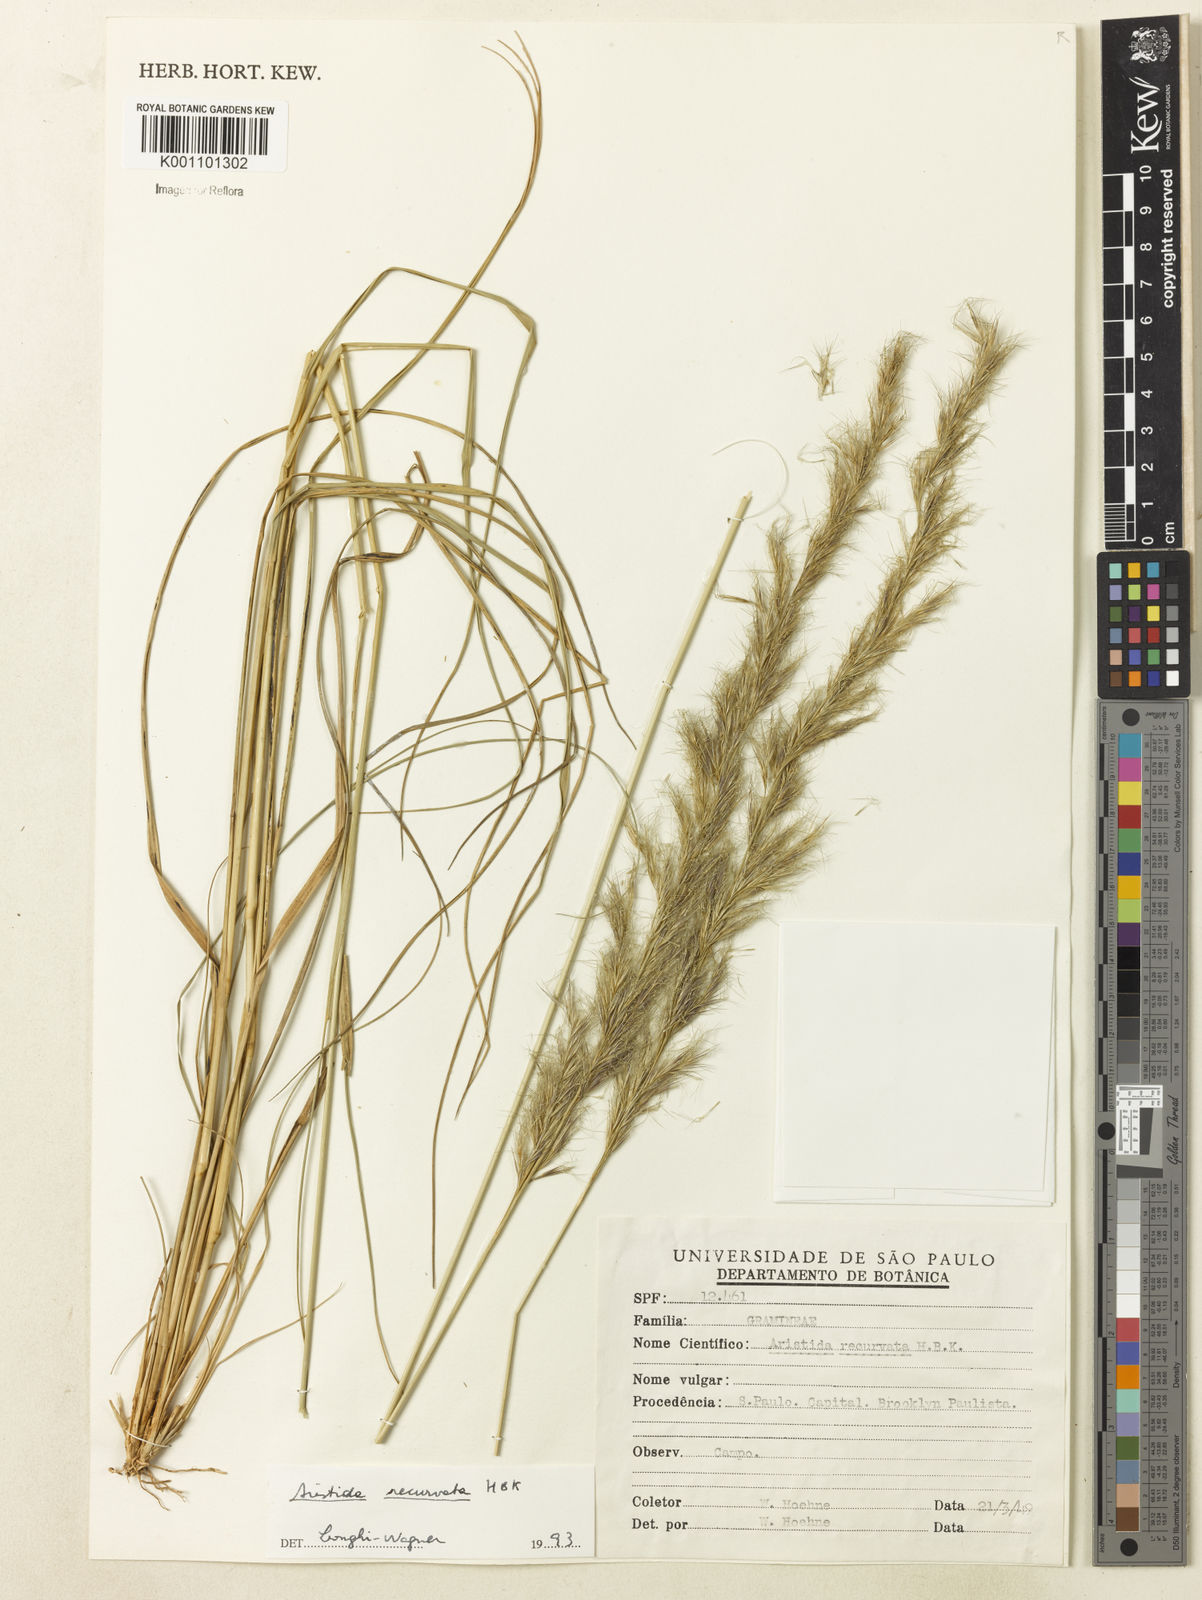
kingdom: Plantae
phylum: Tracheophyta
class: Liliopsida
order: Poales
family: Poaceae
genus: Aristida
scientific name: Aristida recurvata
